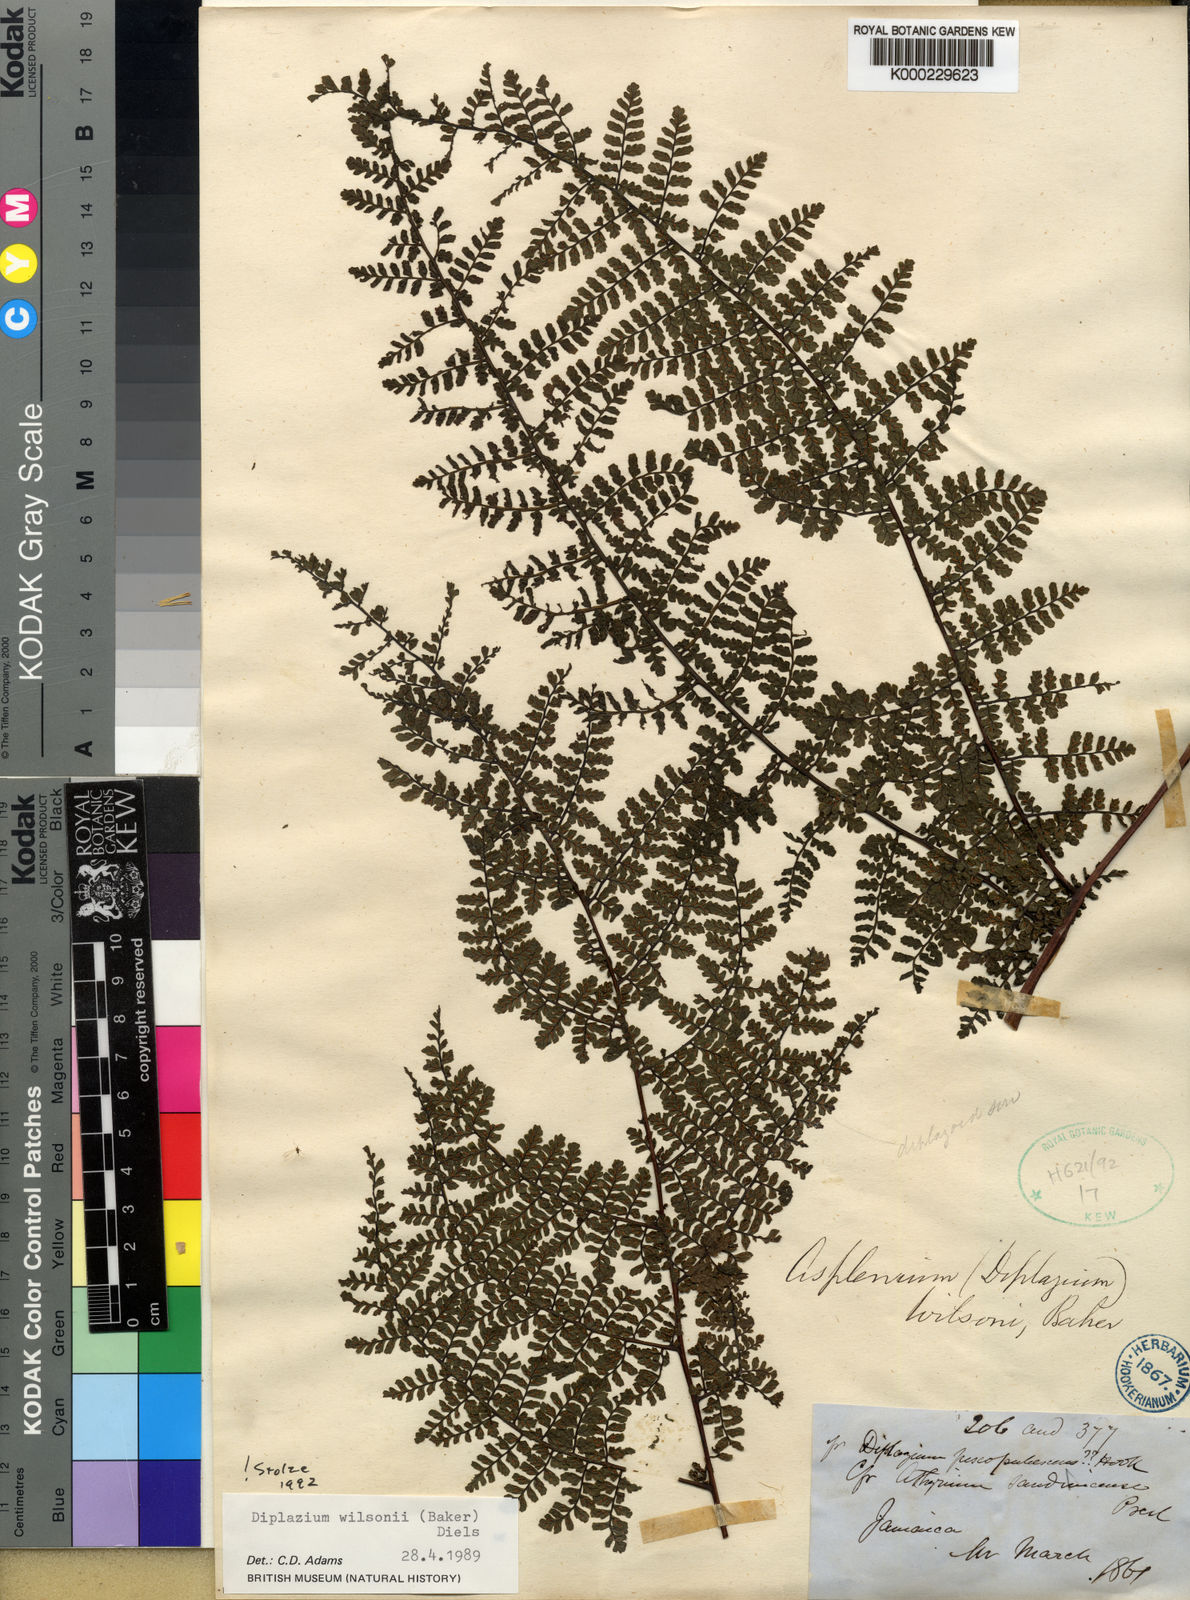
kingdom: Plantae
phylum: Tracheophyta
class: Polypodiopsida
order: Polypodiales
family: Athyriaceae
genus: Diplazium
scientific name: Diplazium wilsonii
